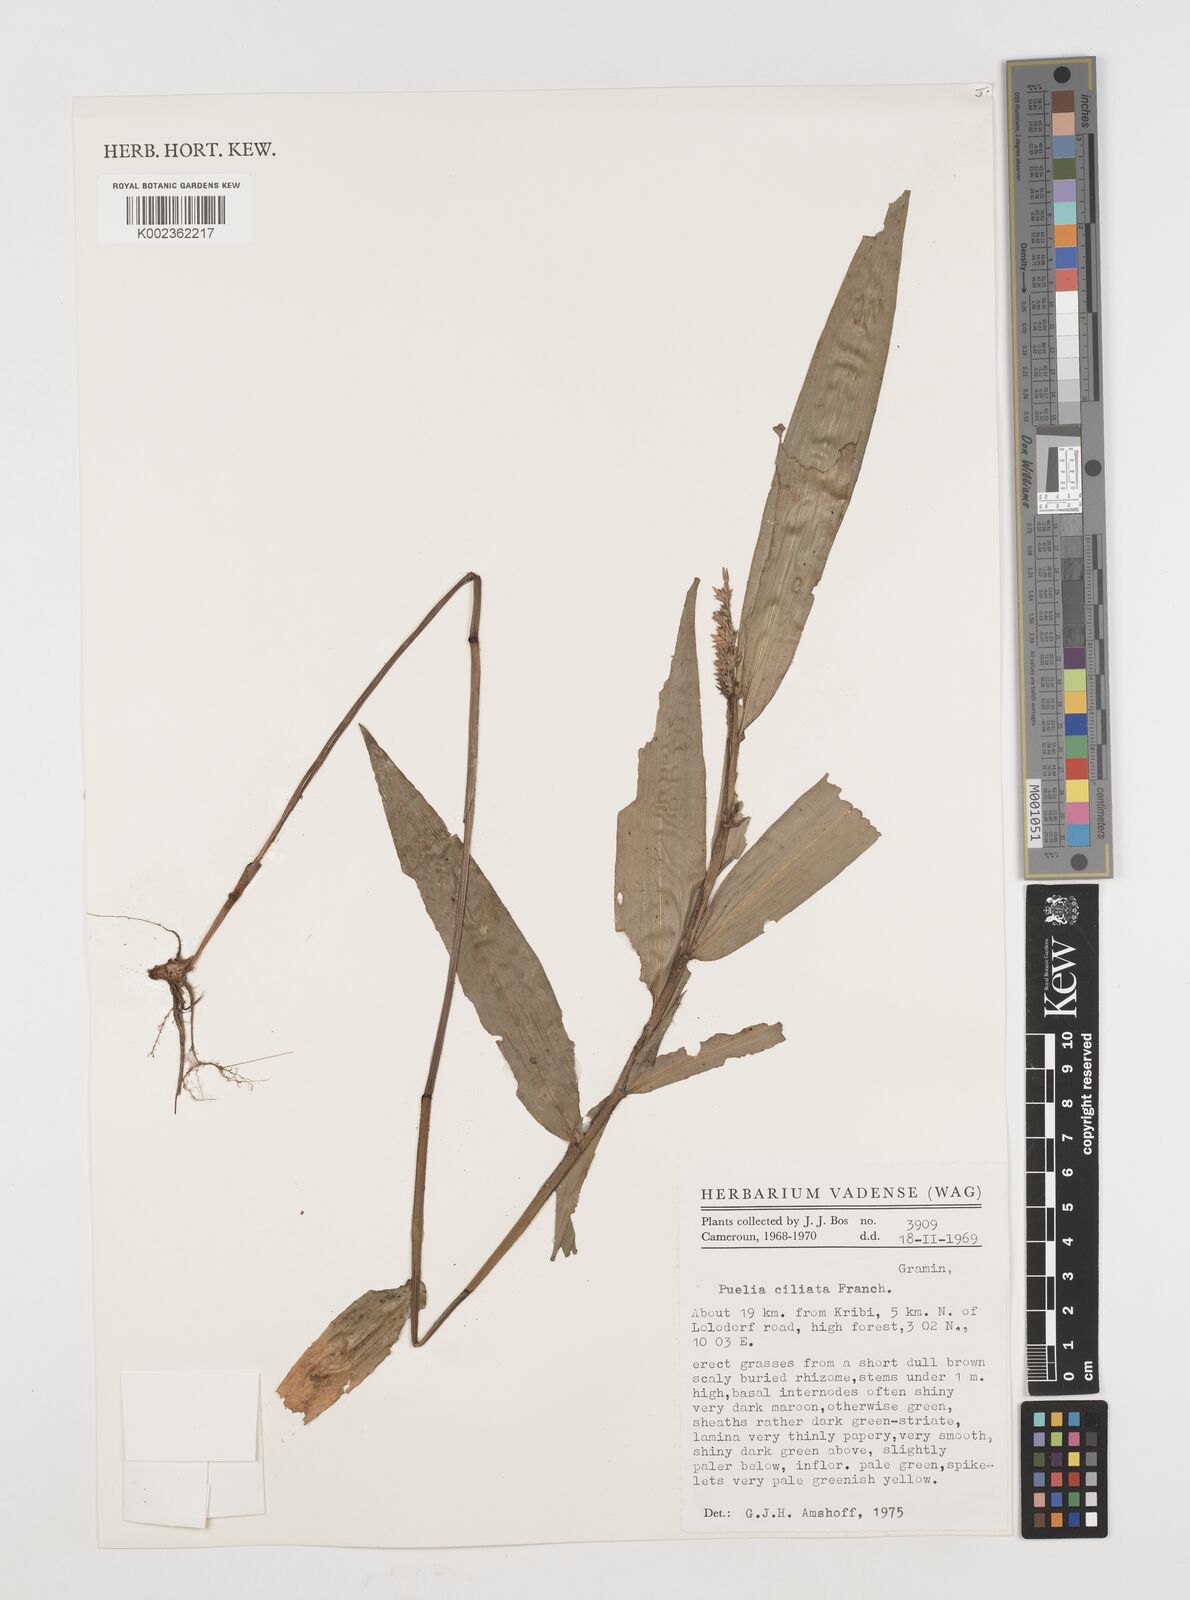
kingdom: Plantae
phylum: Tracheophyta
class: Liliopsida
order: Poales
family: Poaceae
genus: Puelia
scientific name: Puelia ciliata
